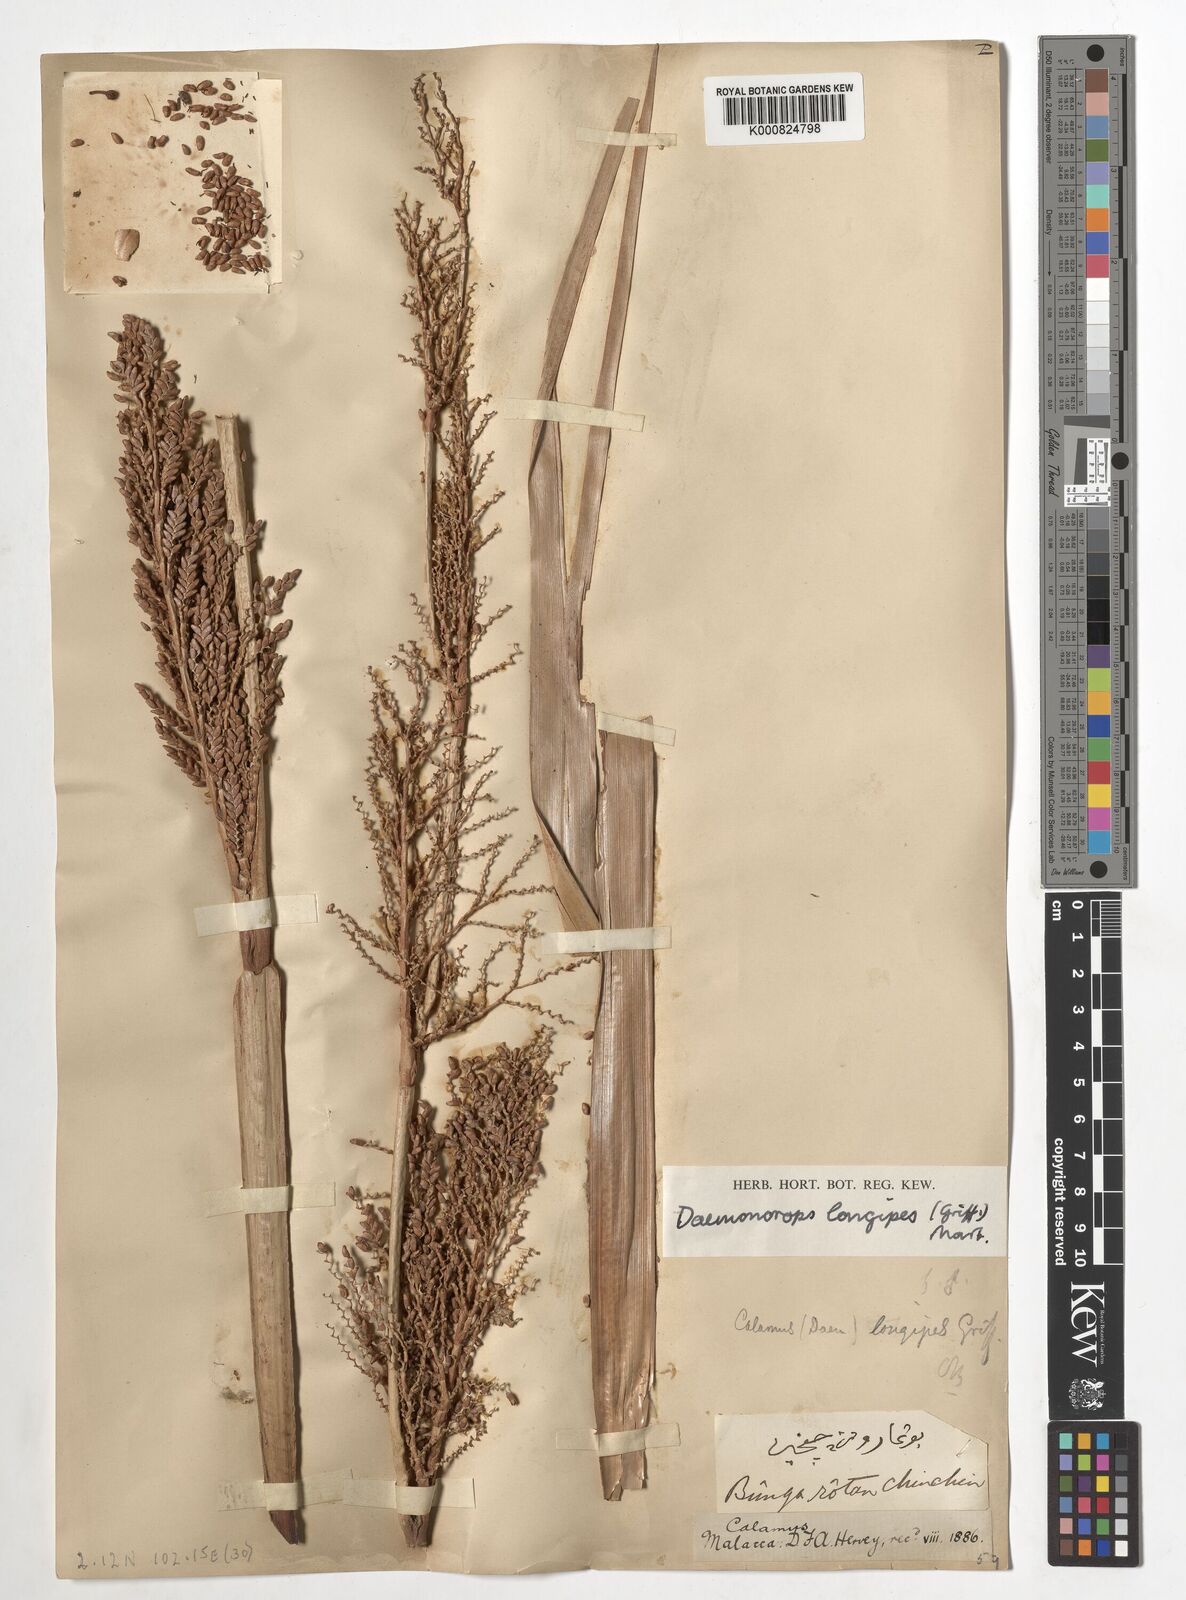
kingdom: Plantae
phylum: Tracheophyta
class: Liliopsida
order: Arecales
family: Arecaceae
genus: Calamus
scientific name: Calamus longipes
